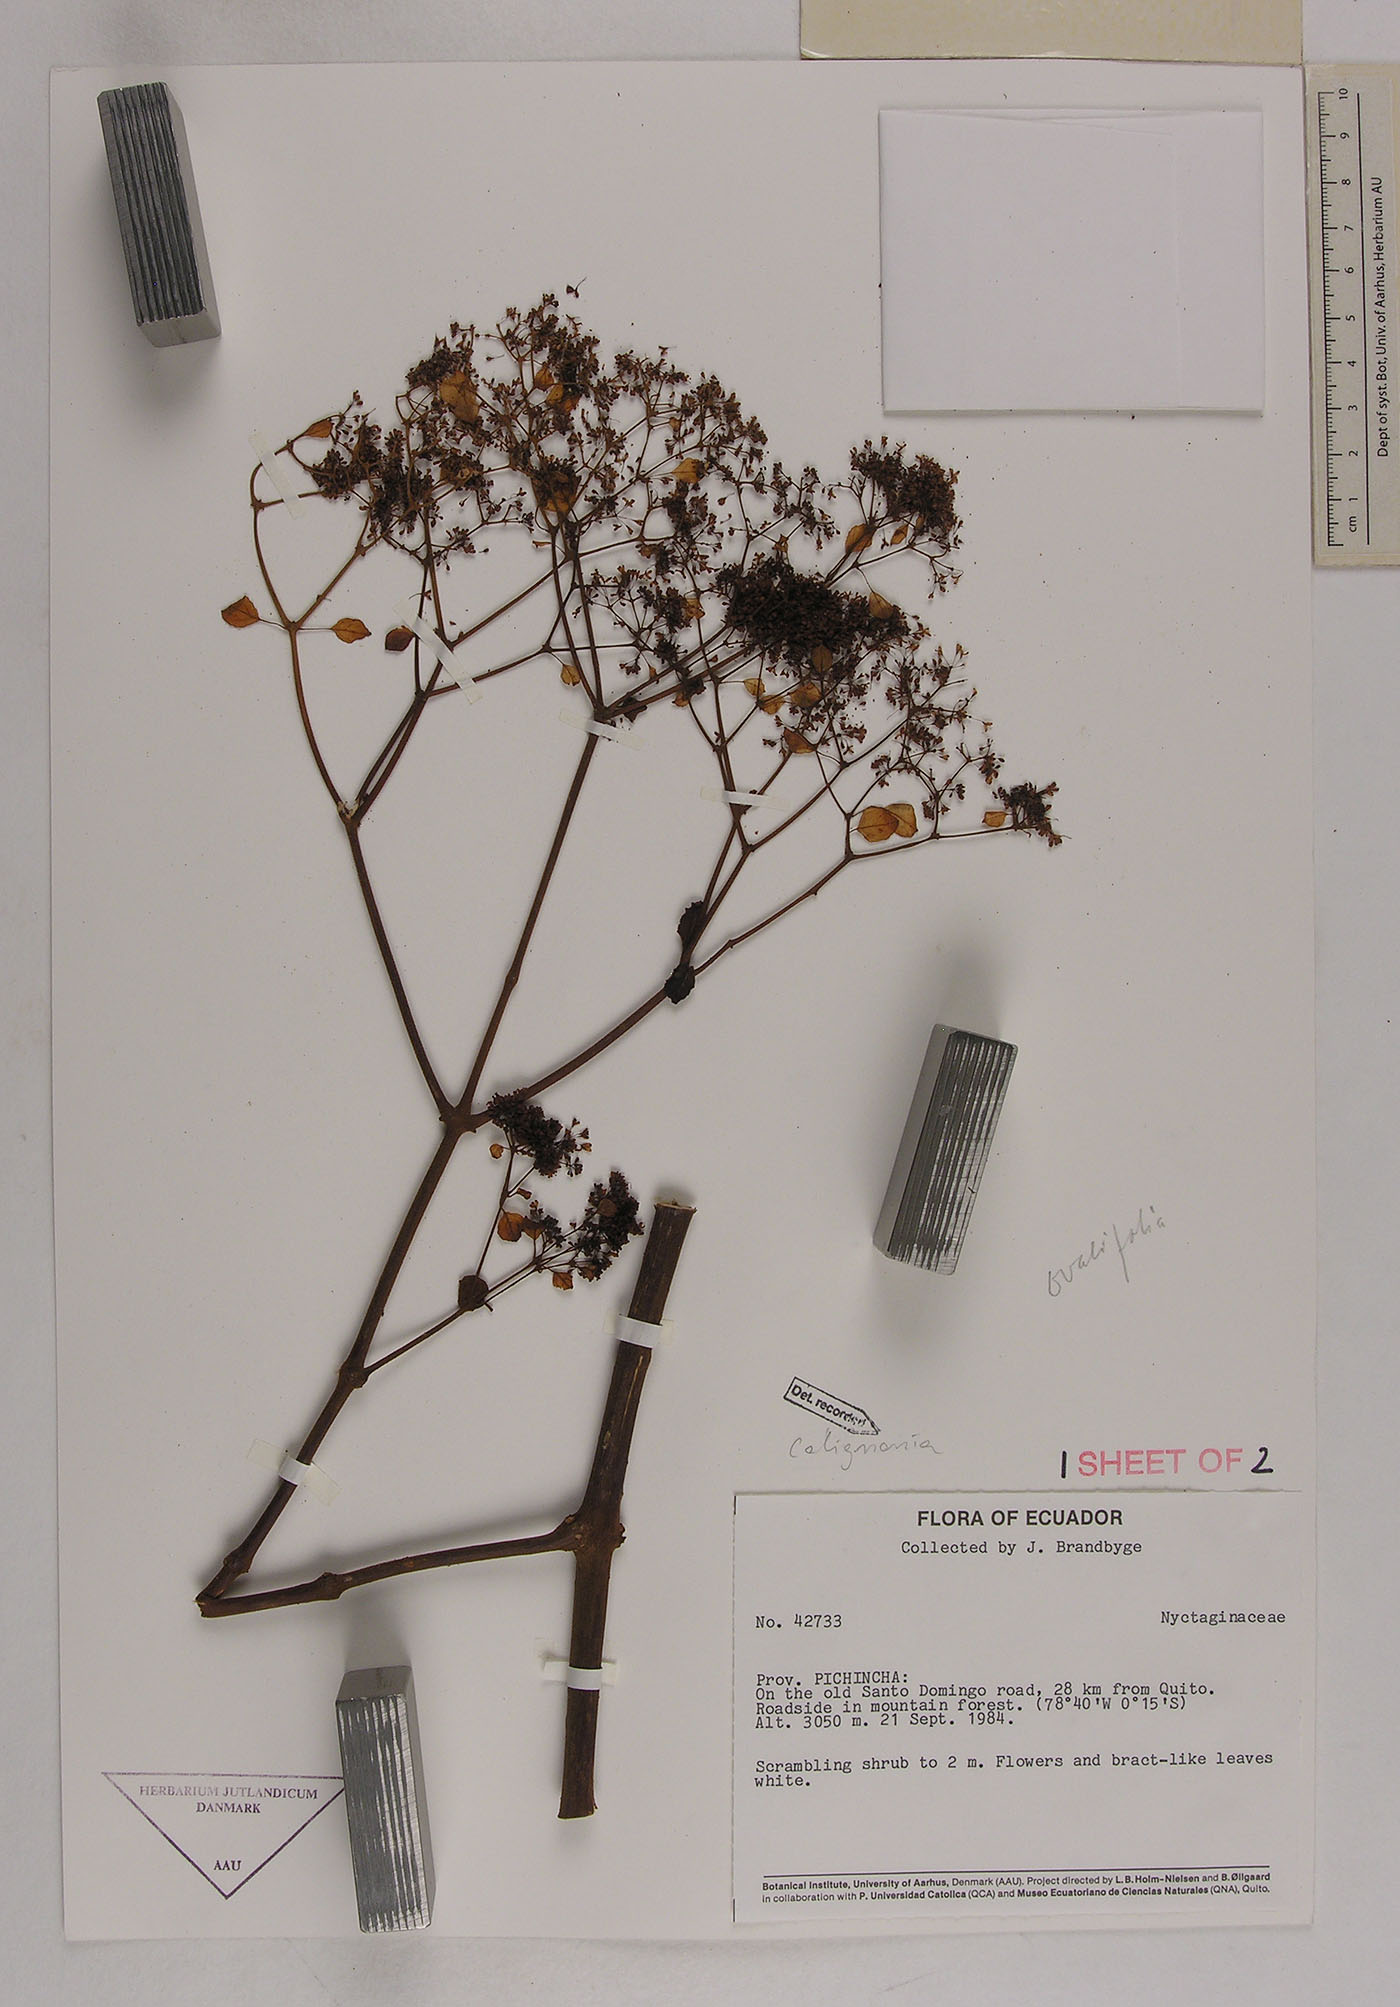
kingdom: Plantae
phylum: Tracheophyta
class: Magnoliopsida
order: Caryophyllales
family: Nyctaginaceae
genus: Colignonia
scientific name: Colignonia
